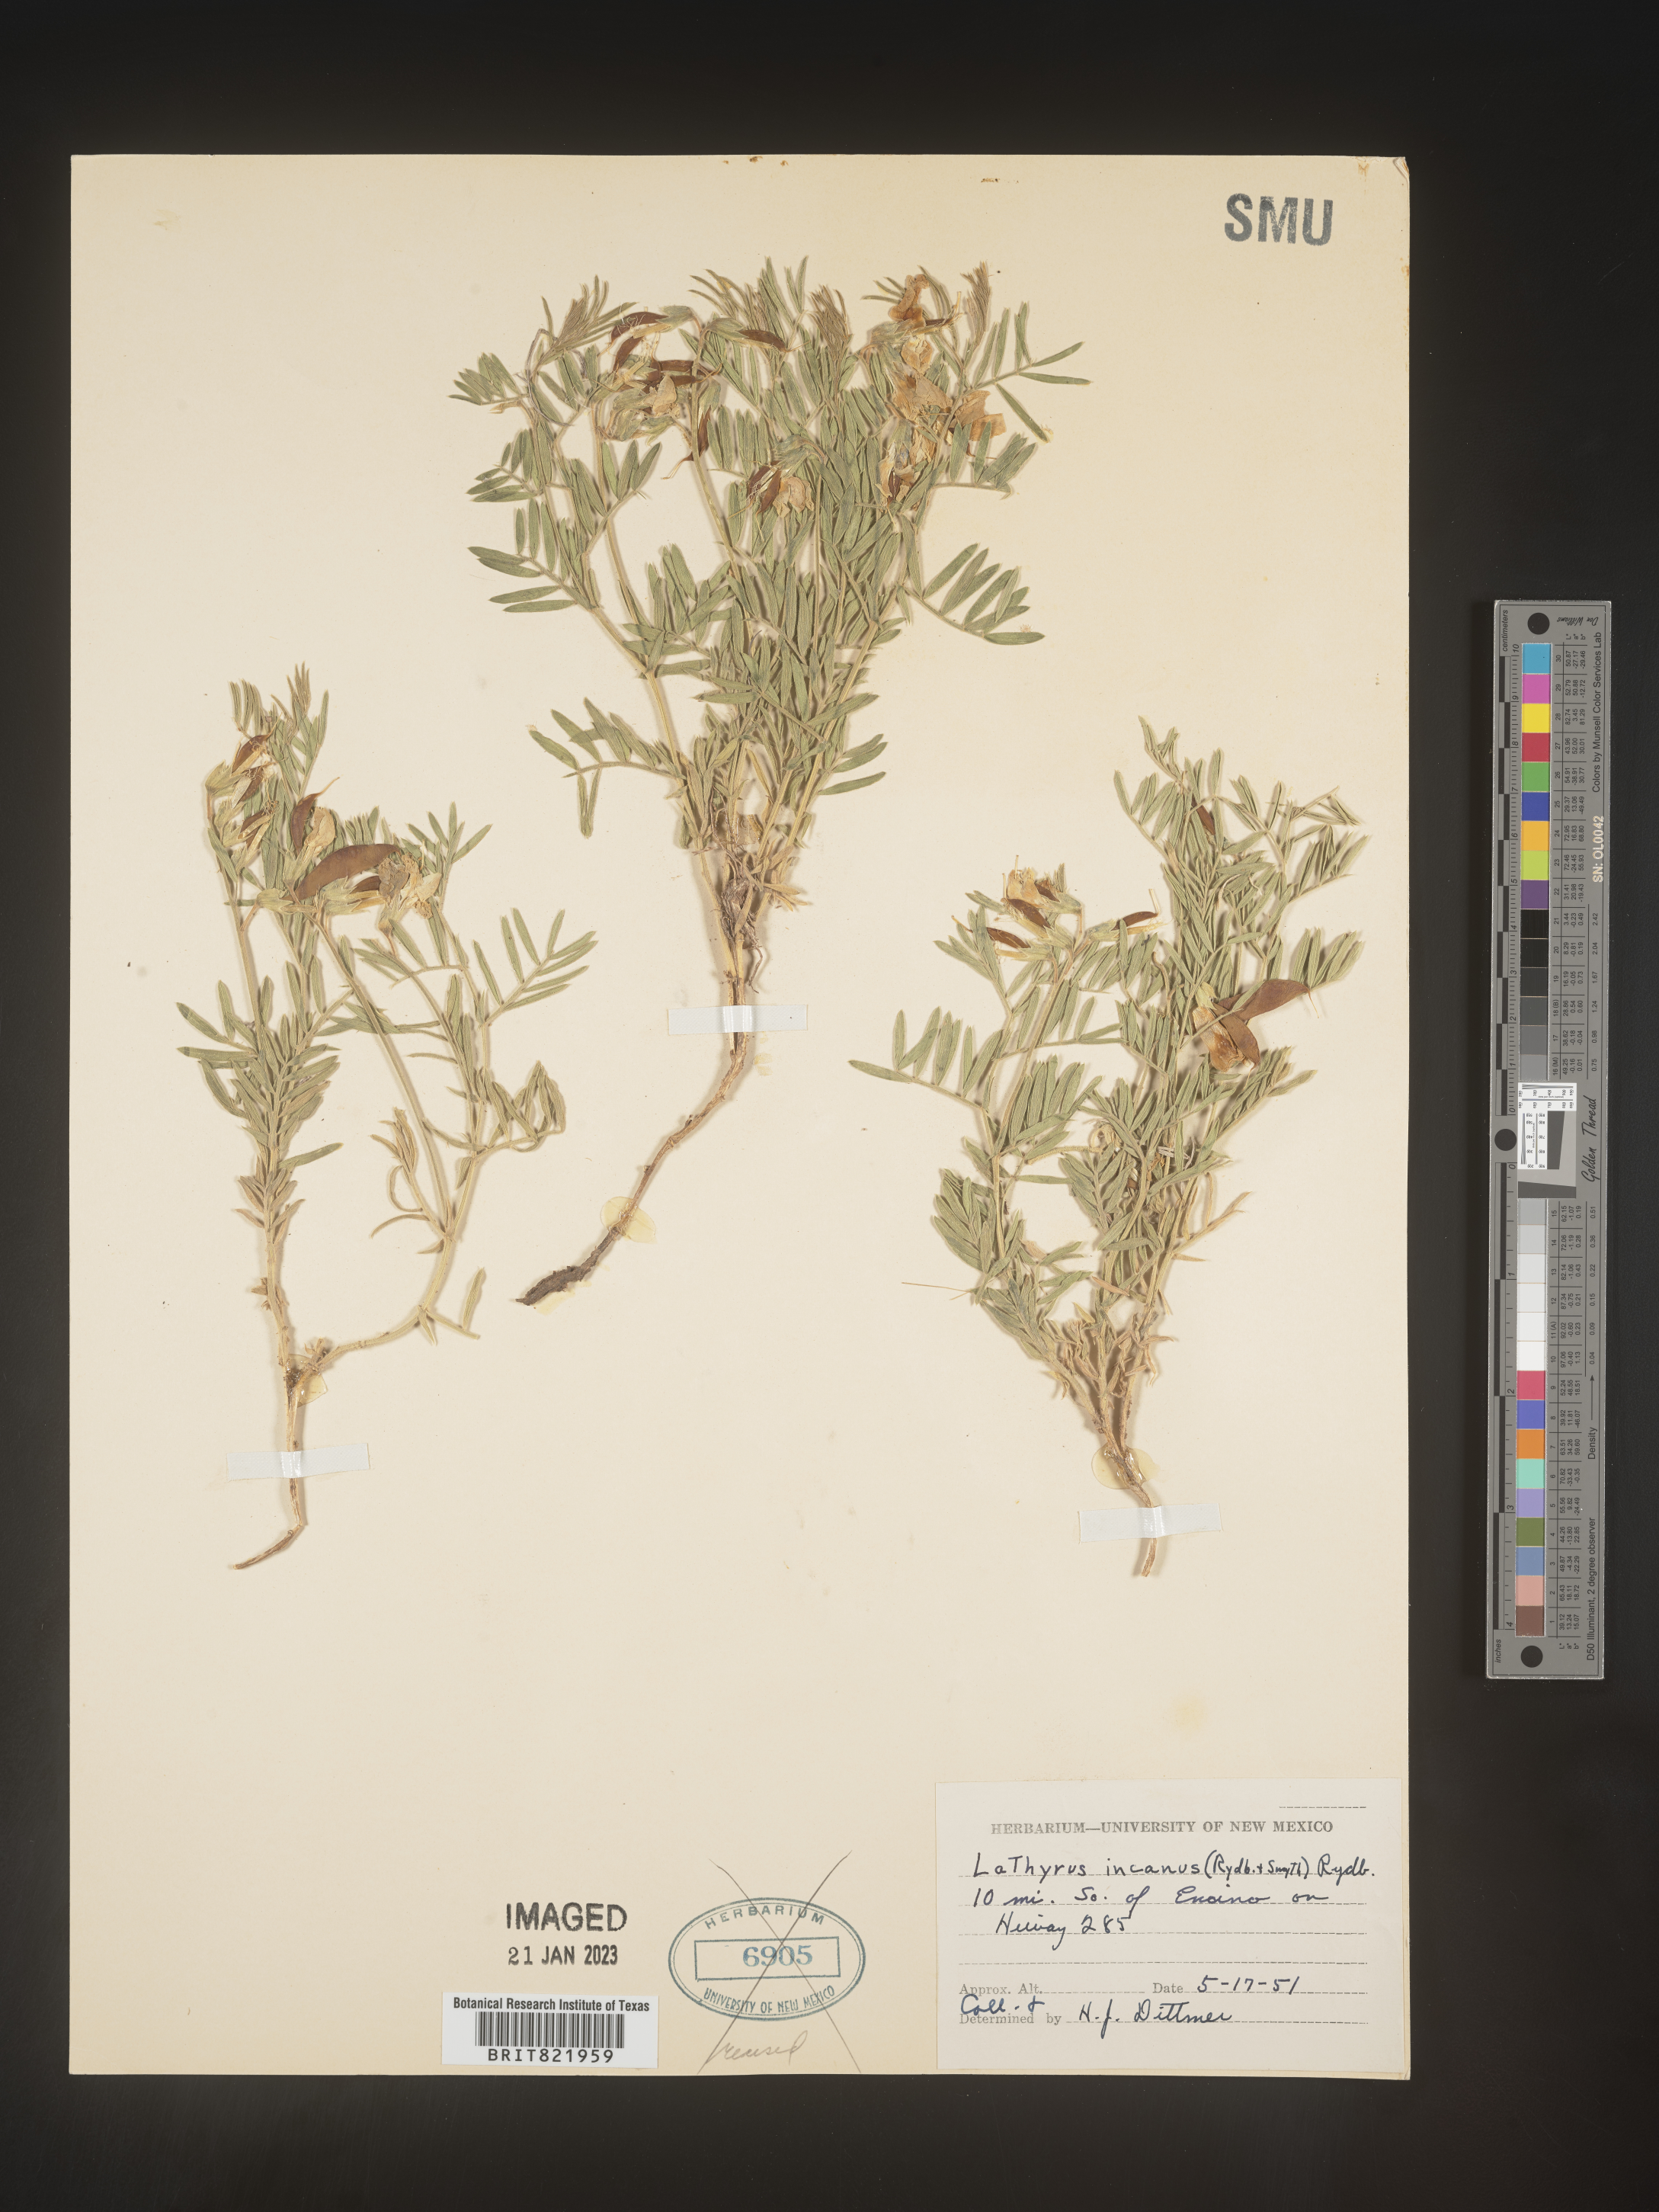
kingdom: Plantae
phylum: Tracheophyta
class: Magnoliopsida
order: Fabales
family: Fabaceae
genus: Lathyrus
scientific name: Lathyrus hirsutus
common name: Hairy vetchling
